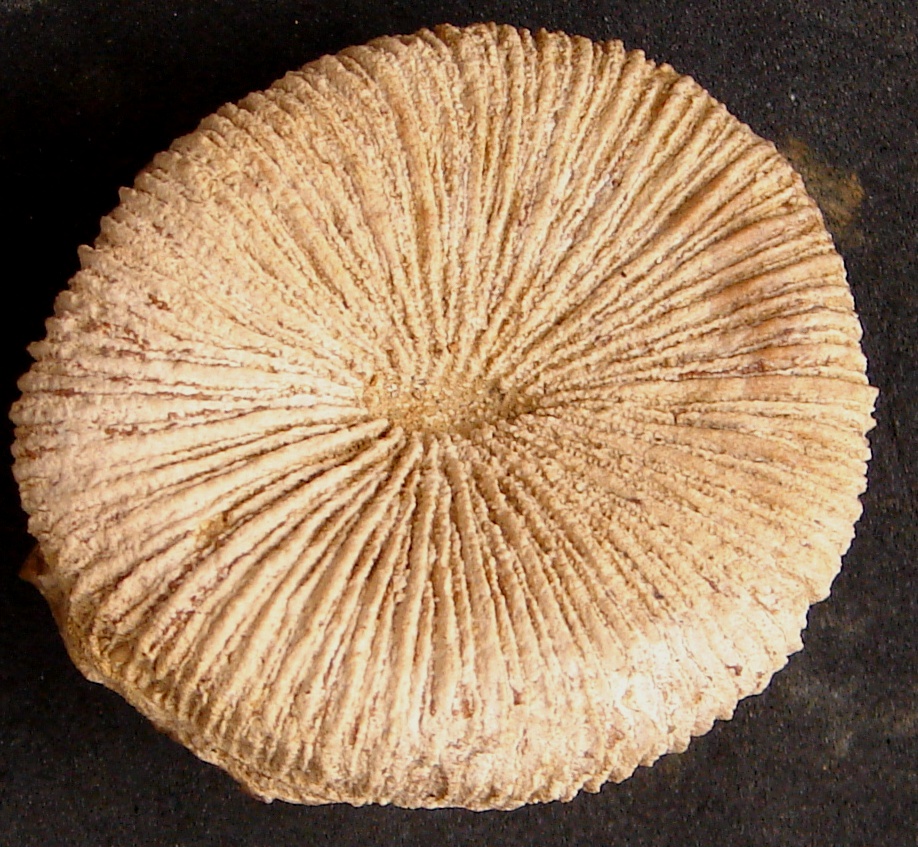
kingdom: Animalia
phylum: Cnidaria
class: Anthozoa
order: Scleractinia
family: Thecosmiliidae
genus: Montlivaltia
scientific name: Montlivaltia
